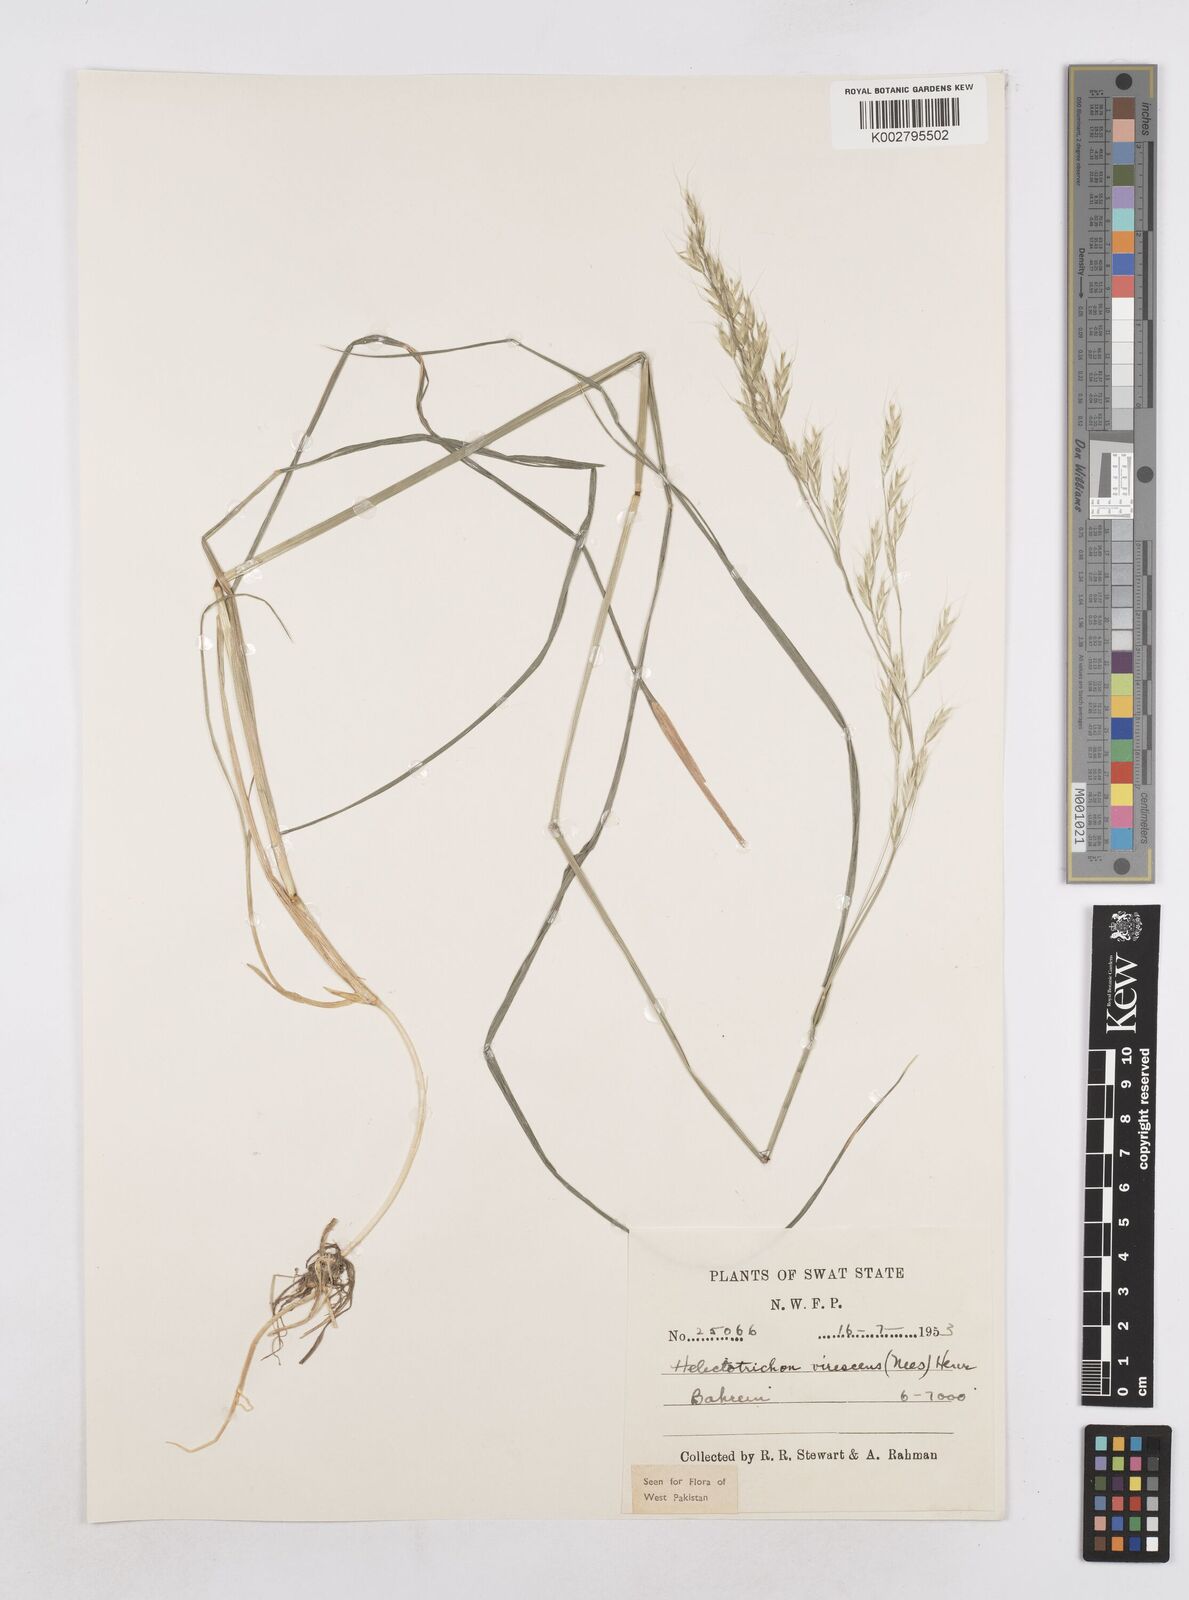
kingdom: Plantae
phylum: Tracheophyta
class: Liliopsida
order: Poales
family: Poaceae
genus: Trisetopsis
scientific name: Trisetopsis junghuhnii
